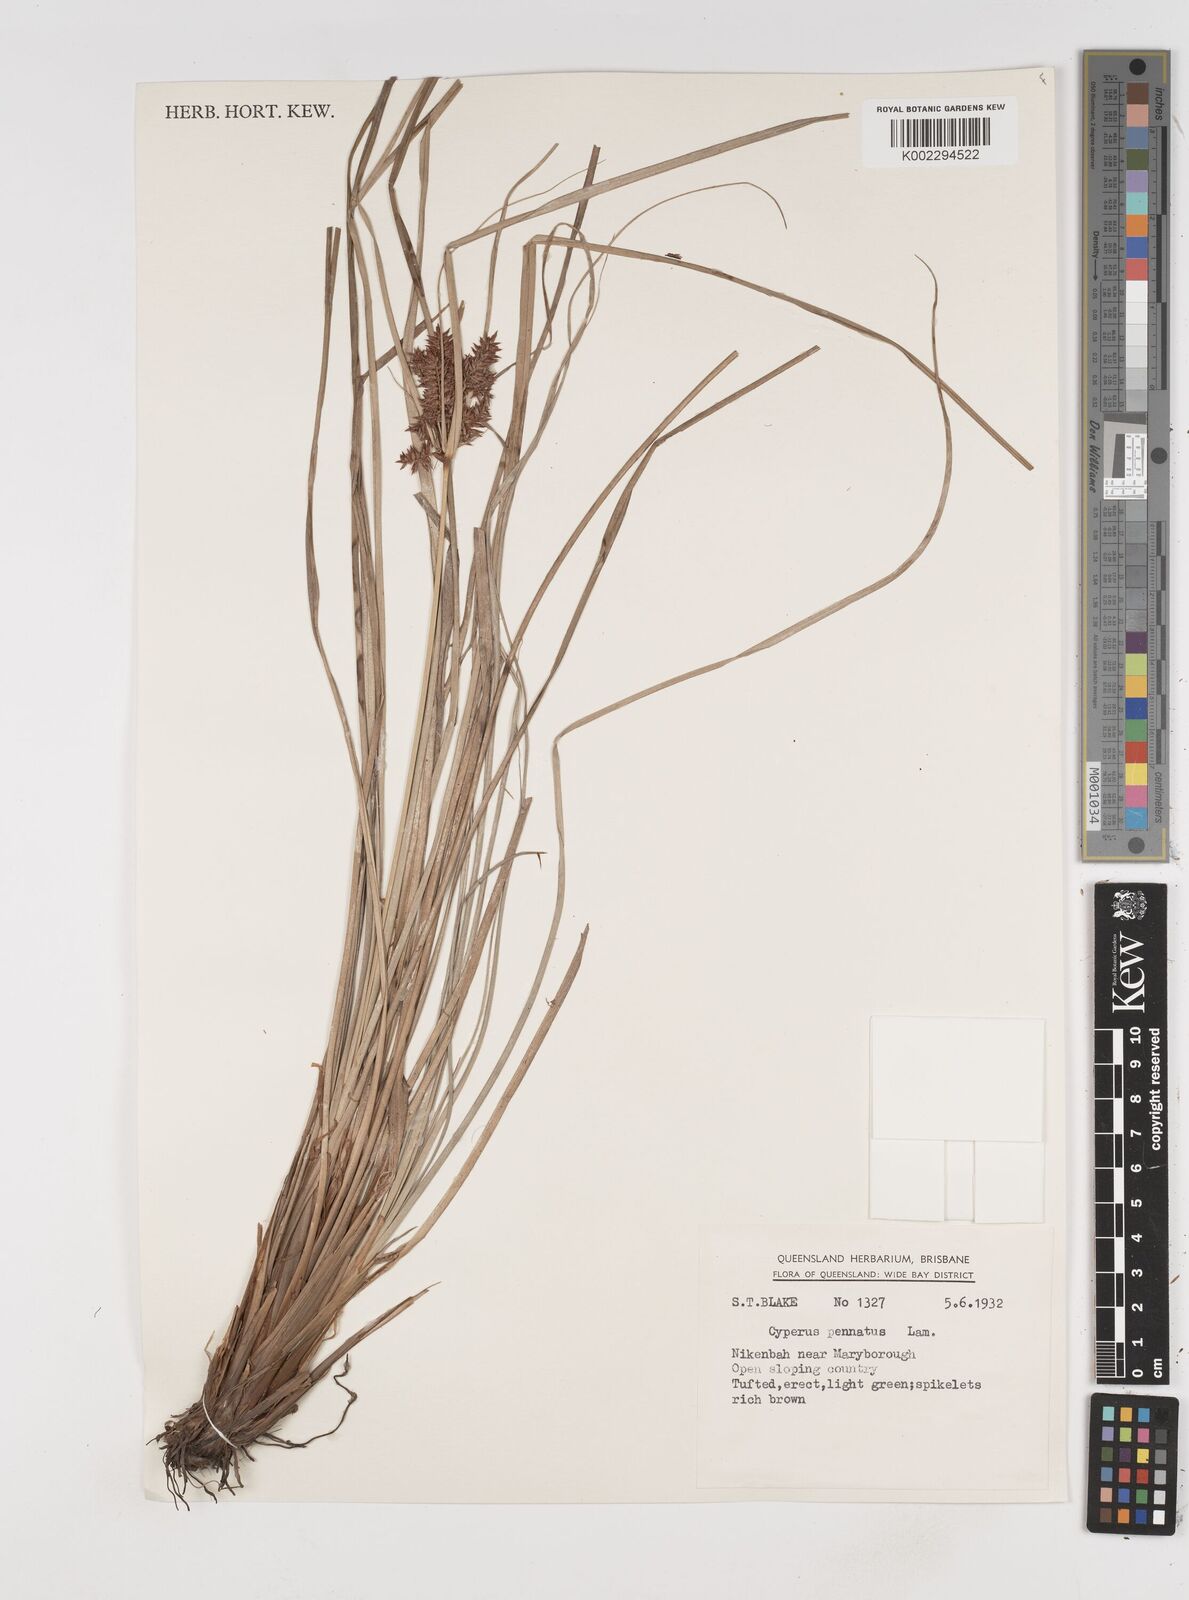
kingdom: Plantae
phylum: Tracheophyta
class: Liliopsida
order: Poales
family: Cyperaceae
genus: Cyperus
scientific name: Cyperus javanicus
